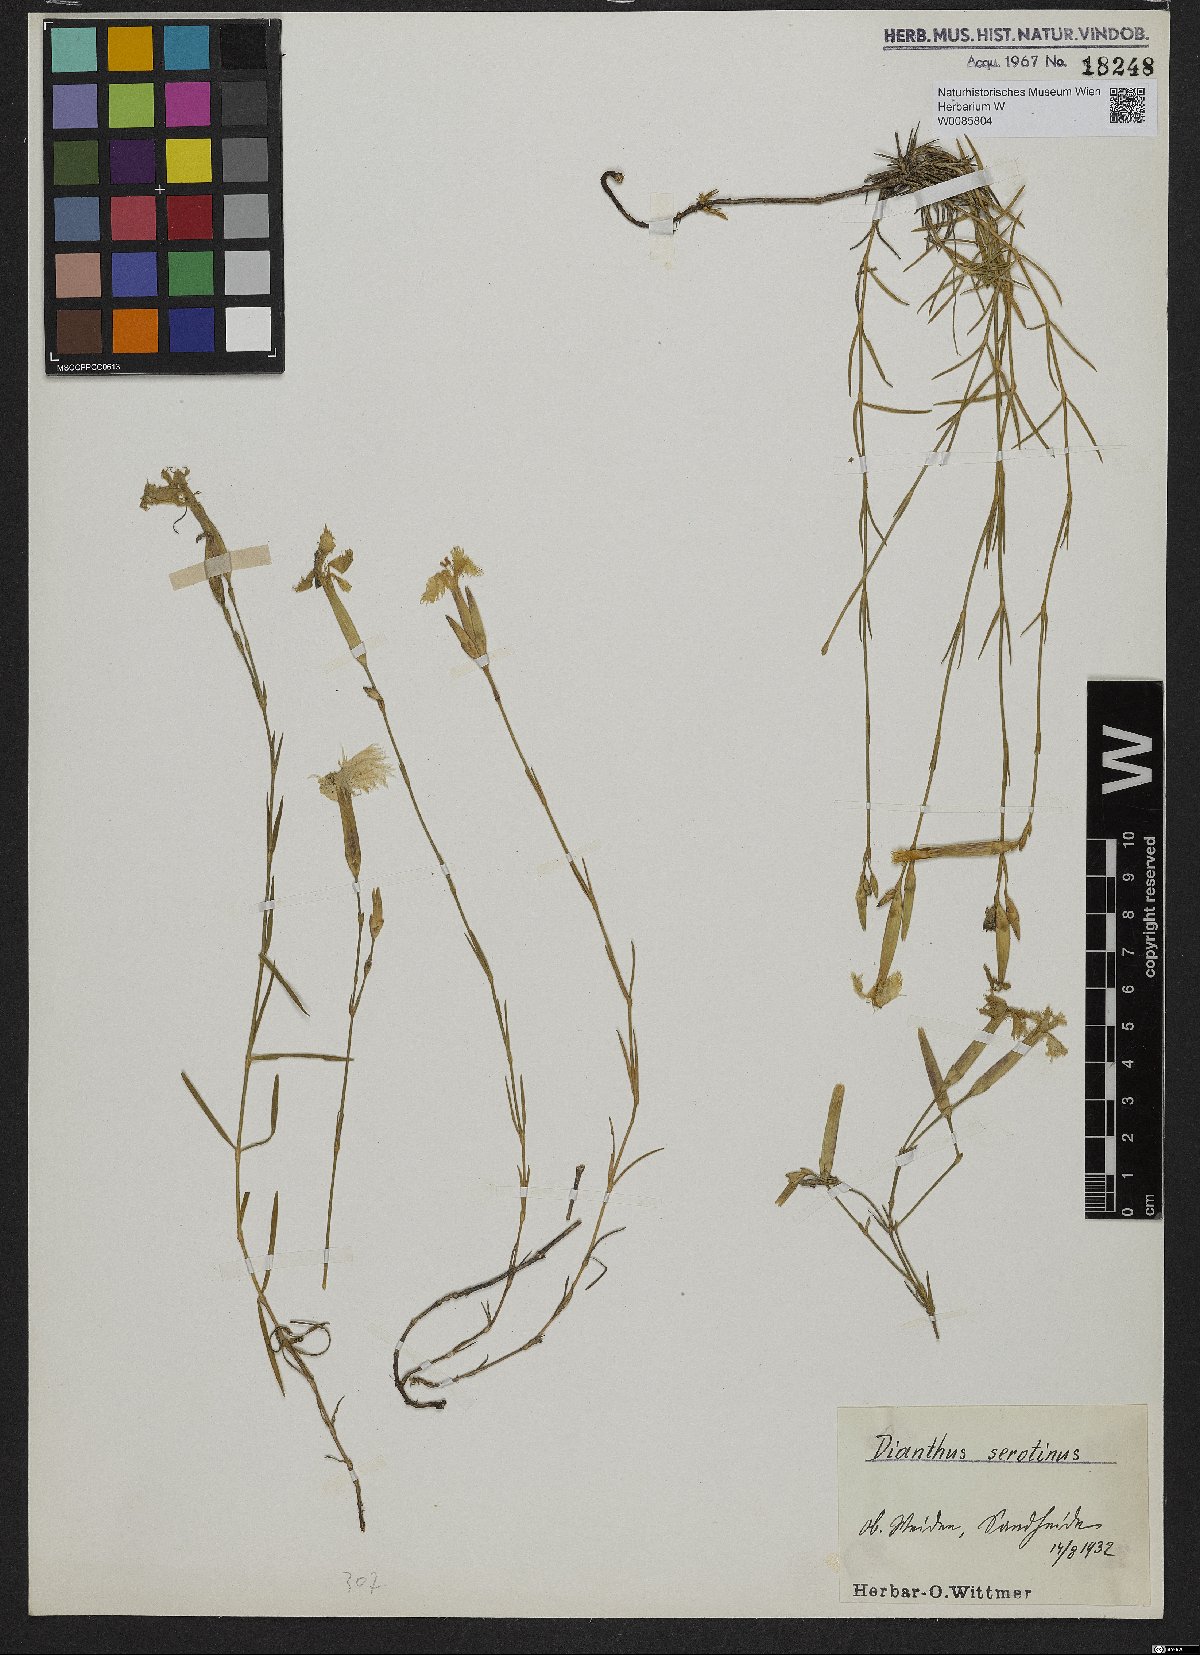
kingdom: Plantae
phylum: Tracheophyta
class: Magnoliopsida
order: Caryophyllales
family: Caryophyllaceae
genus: Dianthus
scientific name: Dianthus serotinus
